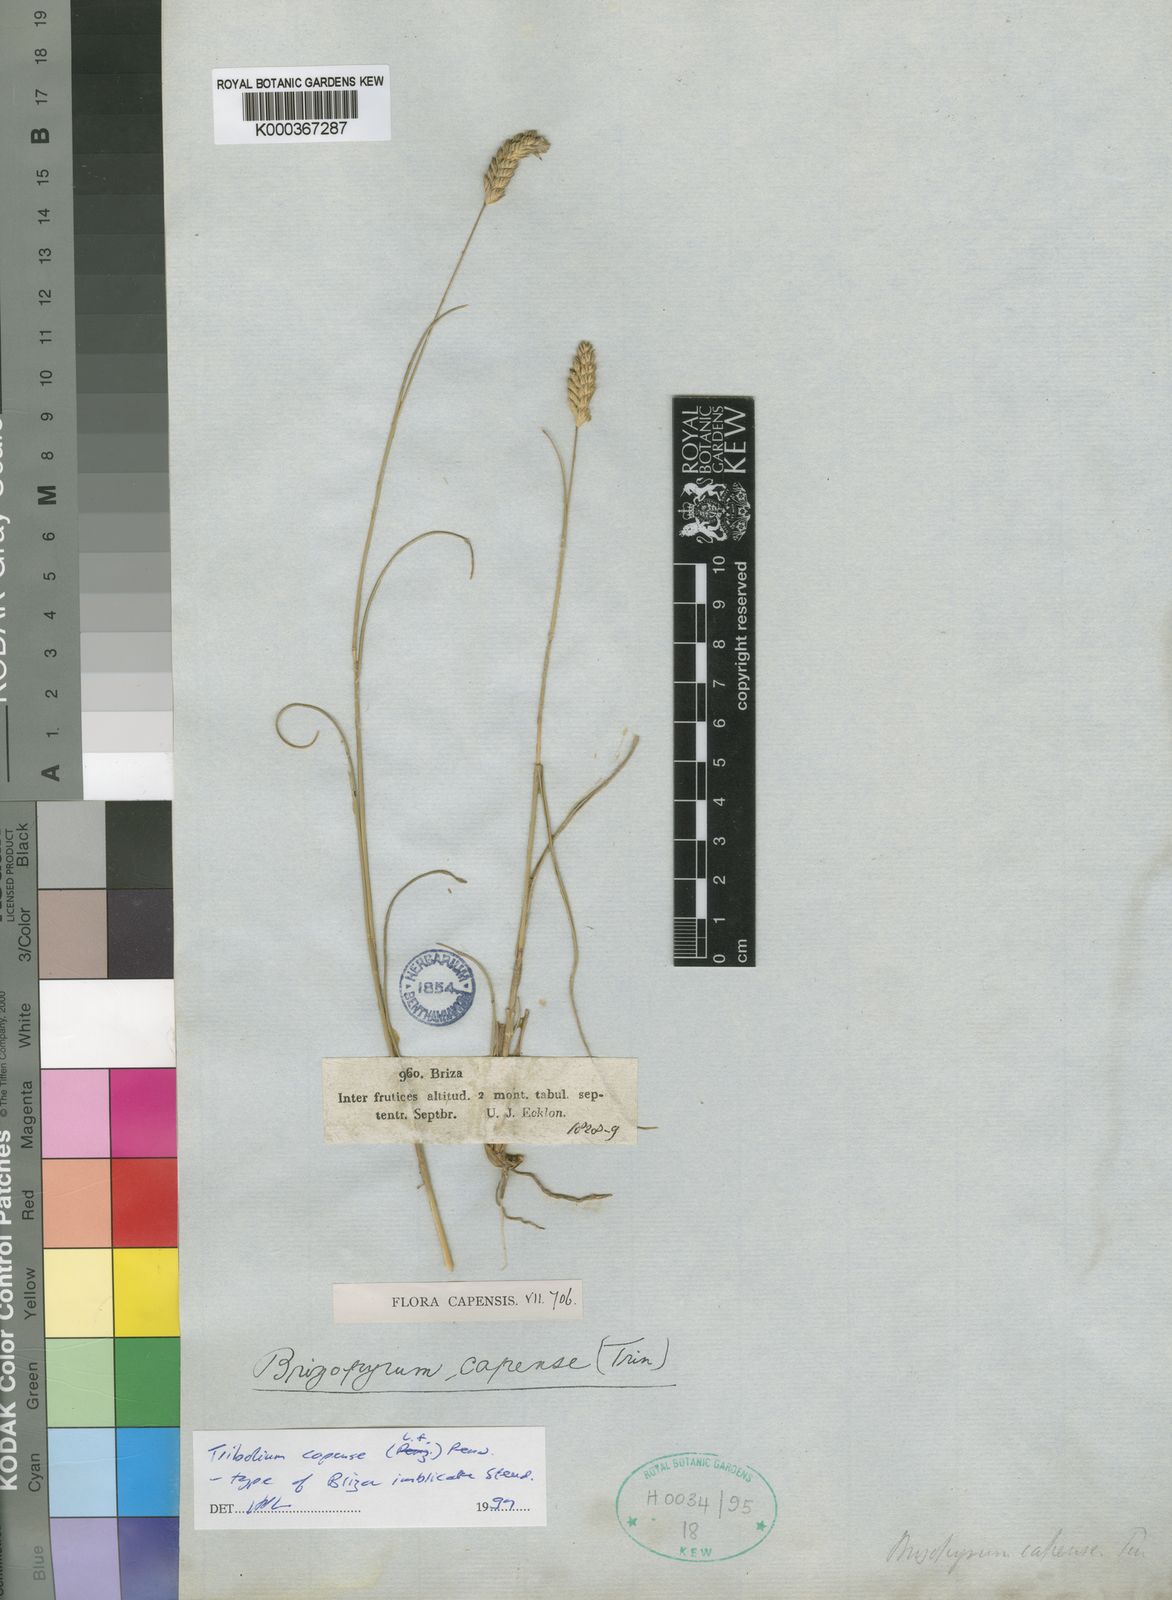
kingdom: Plantae
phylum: Tracheophyta
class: Liliopsida
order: Poales
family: Poaceae
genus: Tribolium
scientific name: Tribolium uniolae
